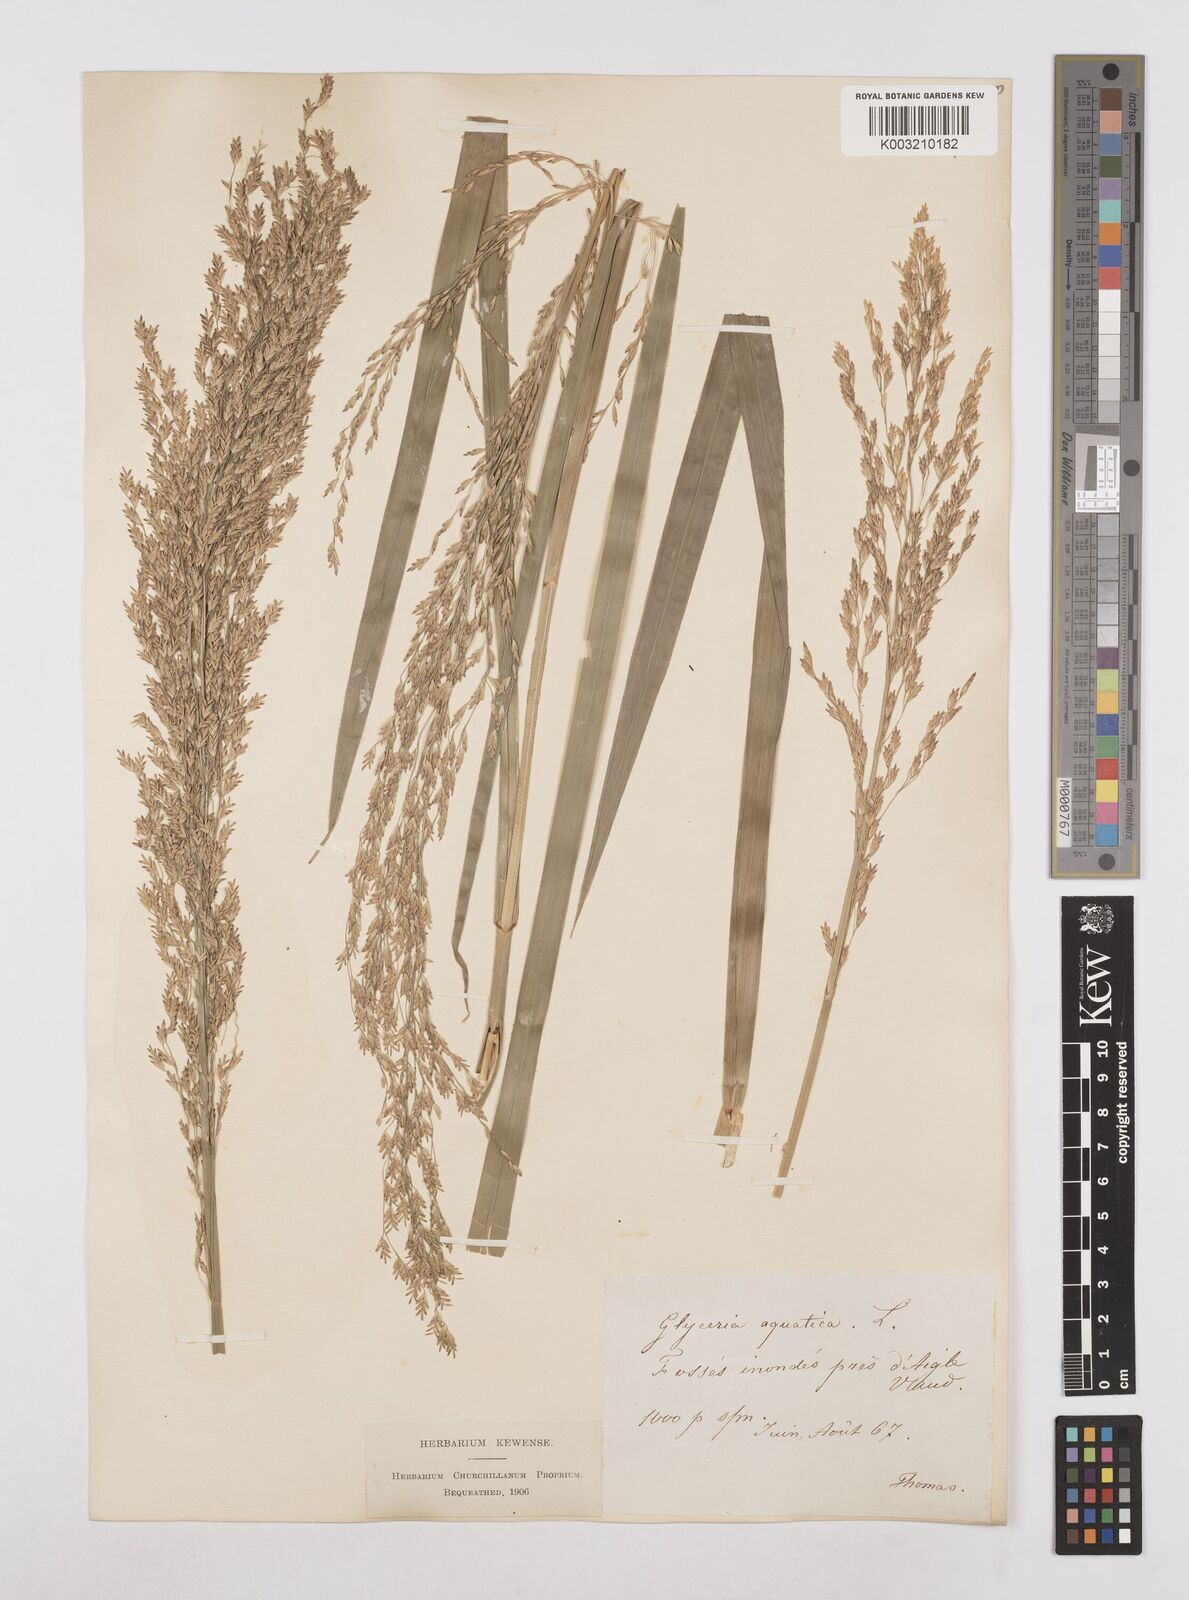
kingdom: Plantae
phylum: Tracheophyta
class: Liliopsida
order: Poales
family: Poaceae
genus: Glyceria
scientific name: Glyceria maxima
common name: Reed mannagrass
